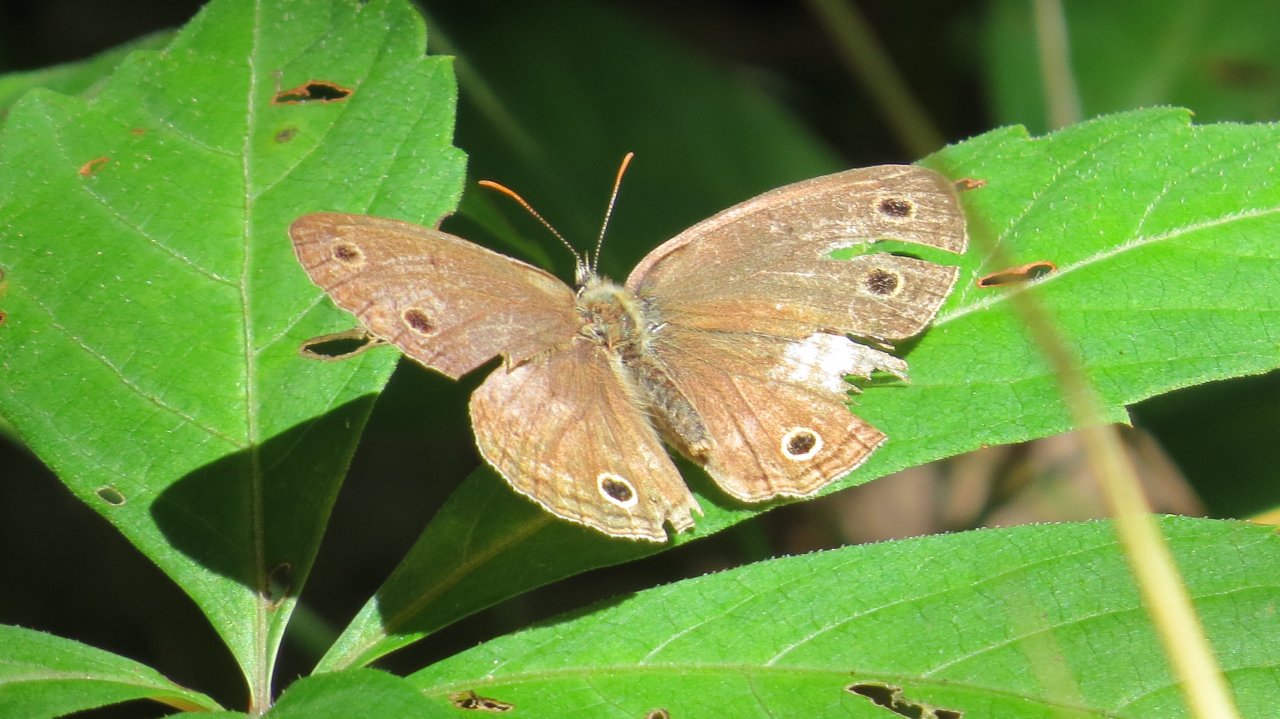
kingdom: Animalia
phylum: Arthropoda
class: Insecta
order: Lepidoptera
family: Nymphalidae
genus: Euptychia
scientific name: Euptychia cymela
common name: Little Wood Satyr
